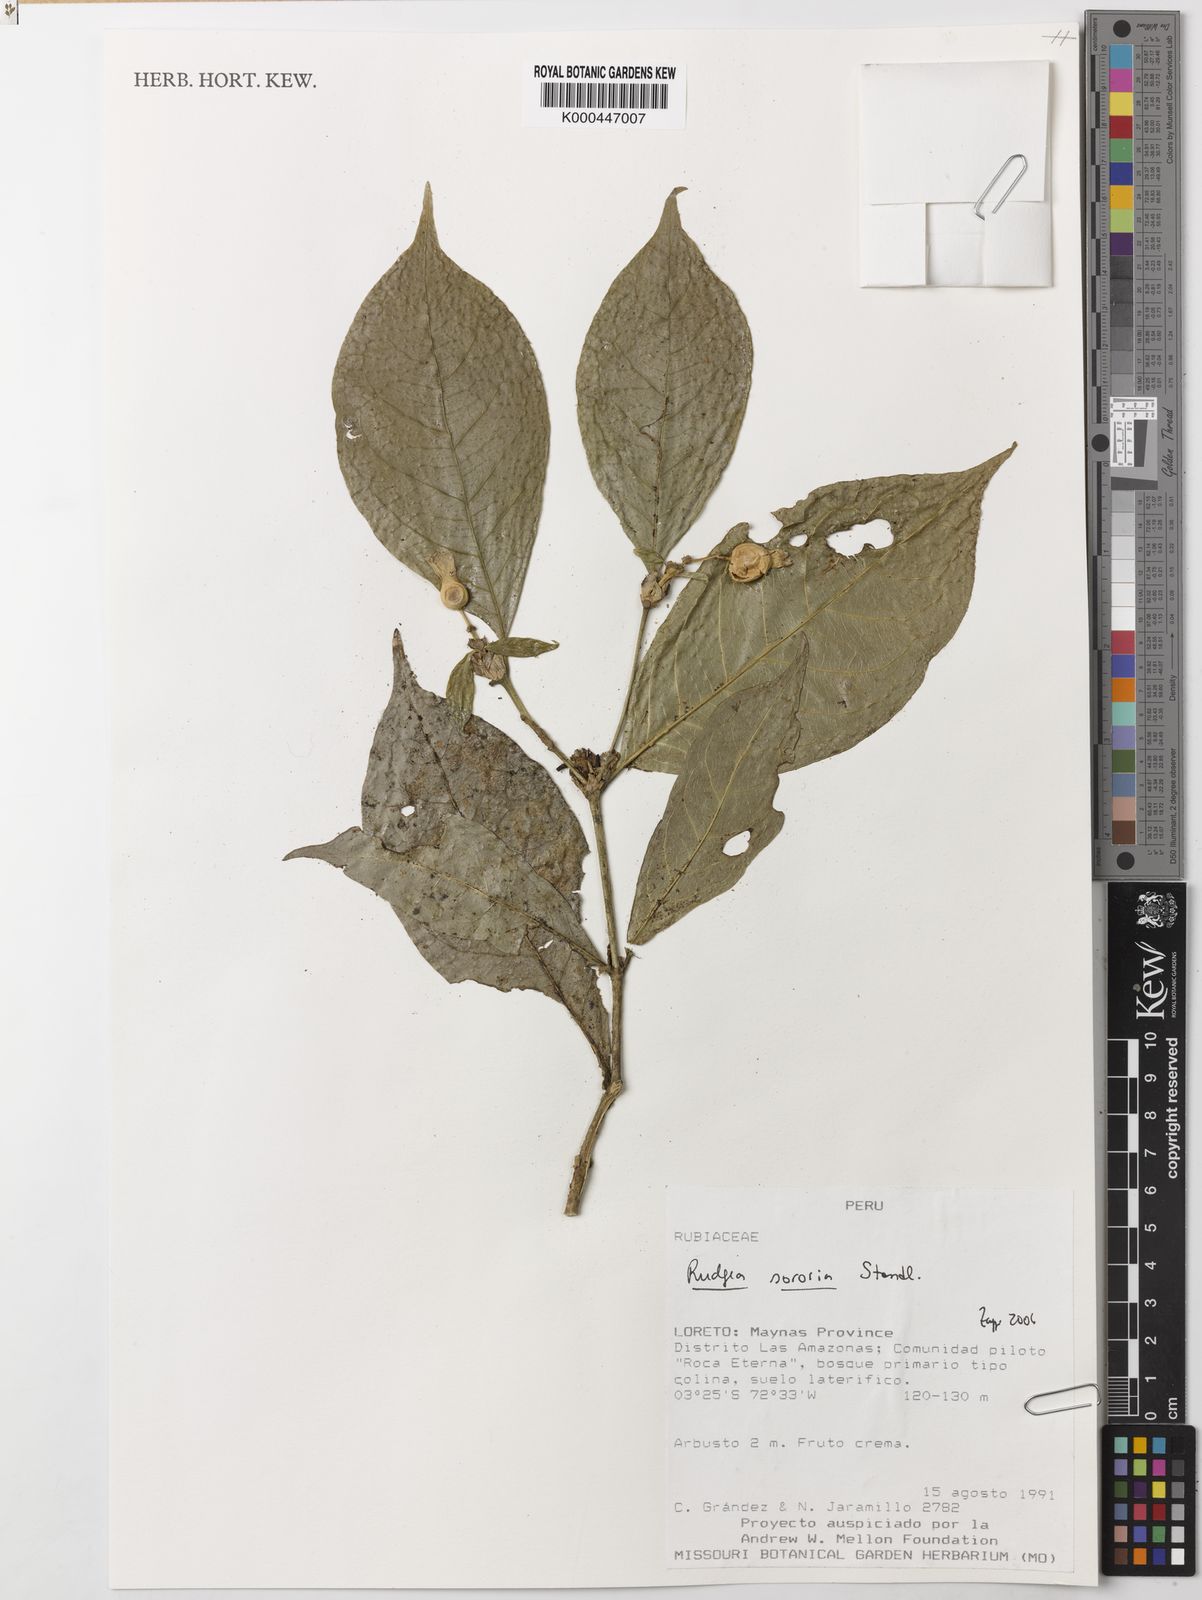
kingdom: Plantae
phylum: Tracheophyta
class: Magnoliopsida
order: Gentianales
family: Rubiaceae
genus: Rudgea
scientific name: Rudgea sororia
